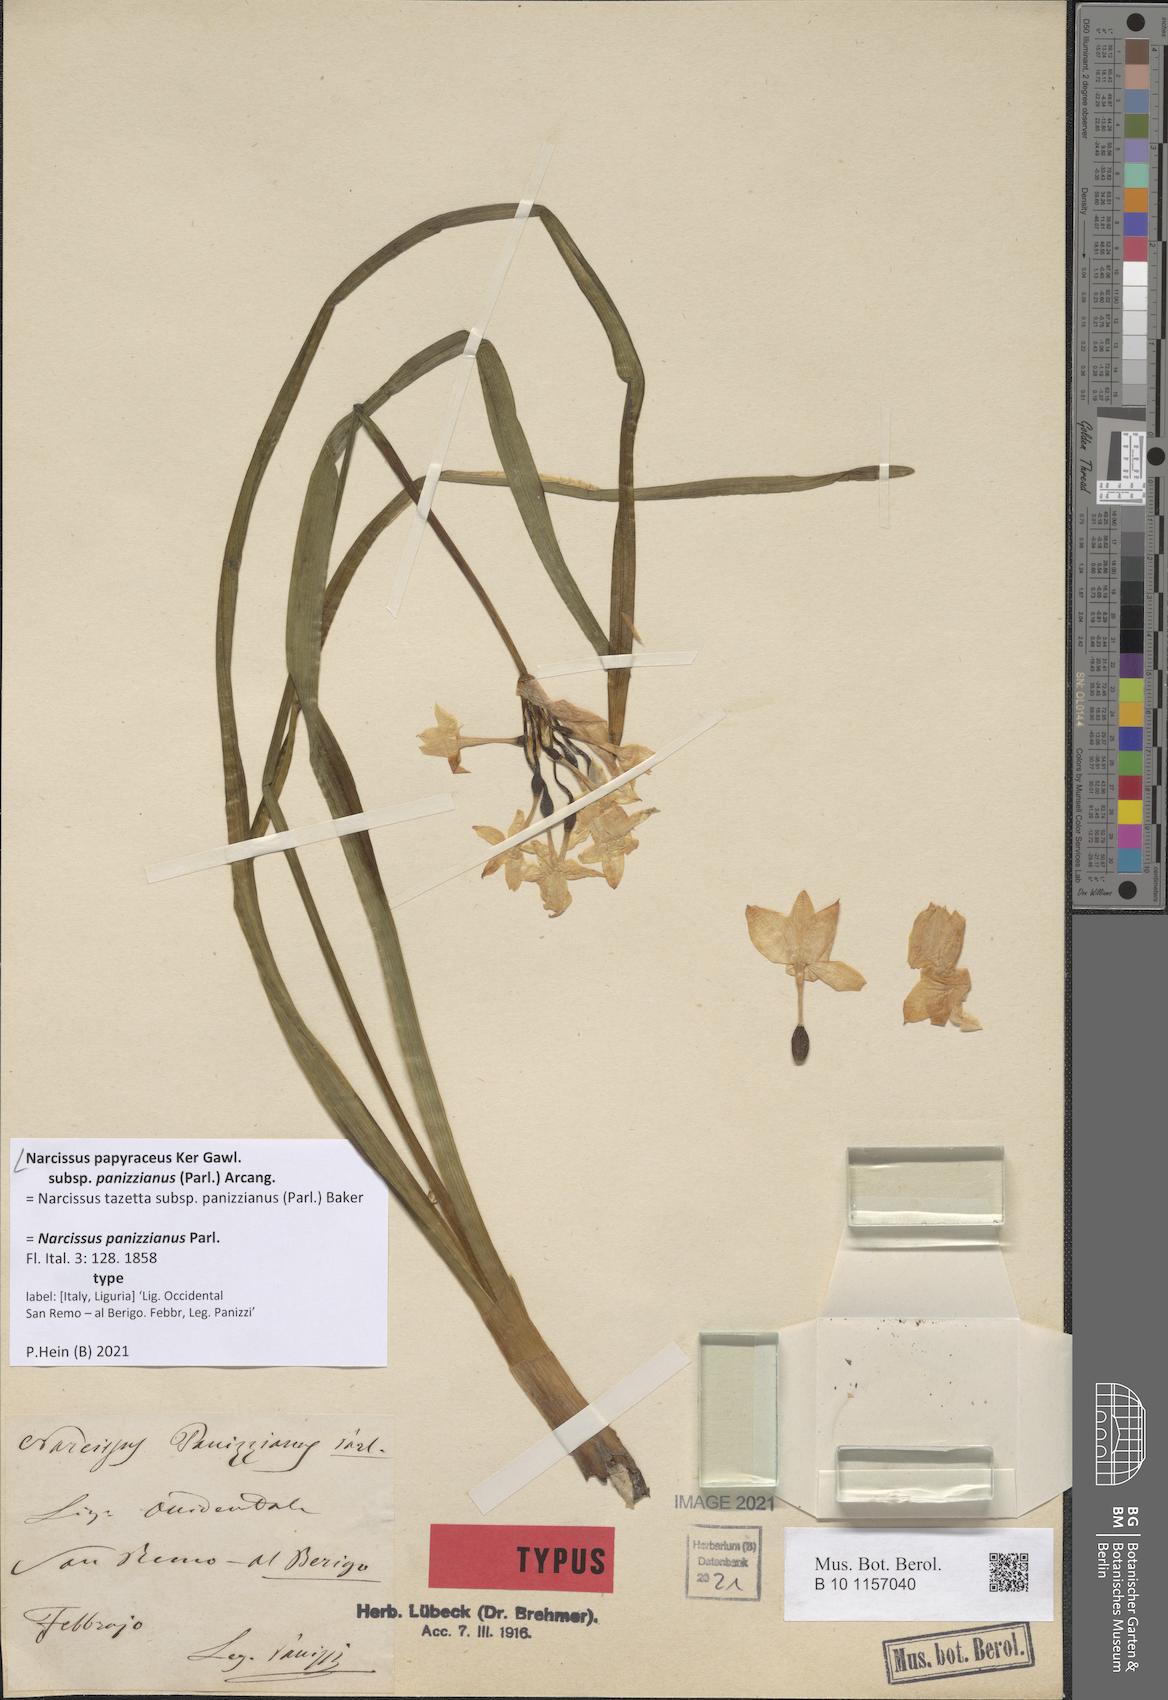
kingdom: Plantae
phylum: Tracheophyta
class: Liliopsida
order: Asparagales
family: Amaryllidaceae
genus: Narcissus
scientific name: Narcissus papyraceus
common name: Paper-white daffodil
